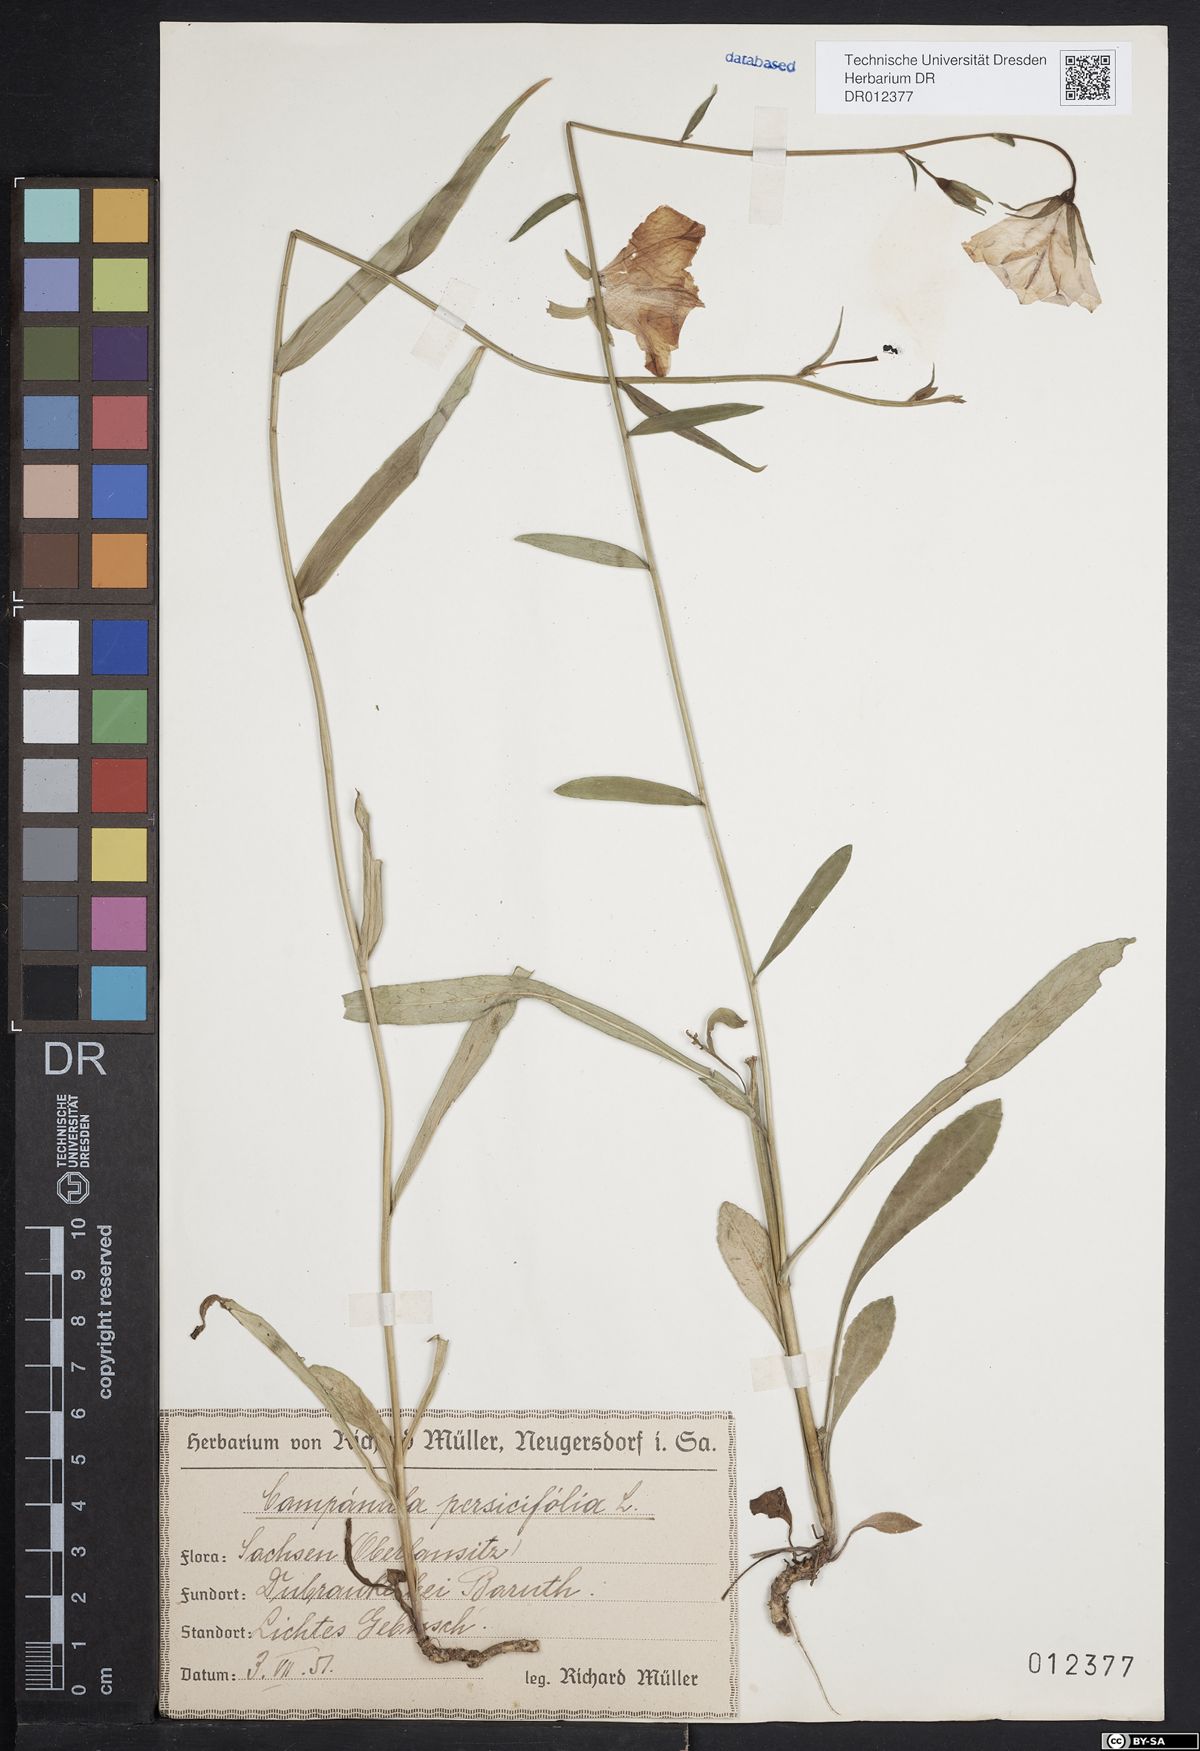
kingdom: Plantae
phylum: Tracheophyta
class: Magnoliopsida
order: Asterales
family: Campanulaceae
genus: Campanula
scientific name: Campanula persicifolia
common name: Peach-leaved bellflower
